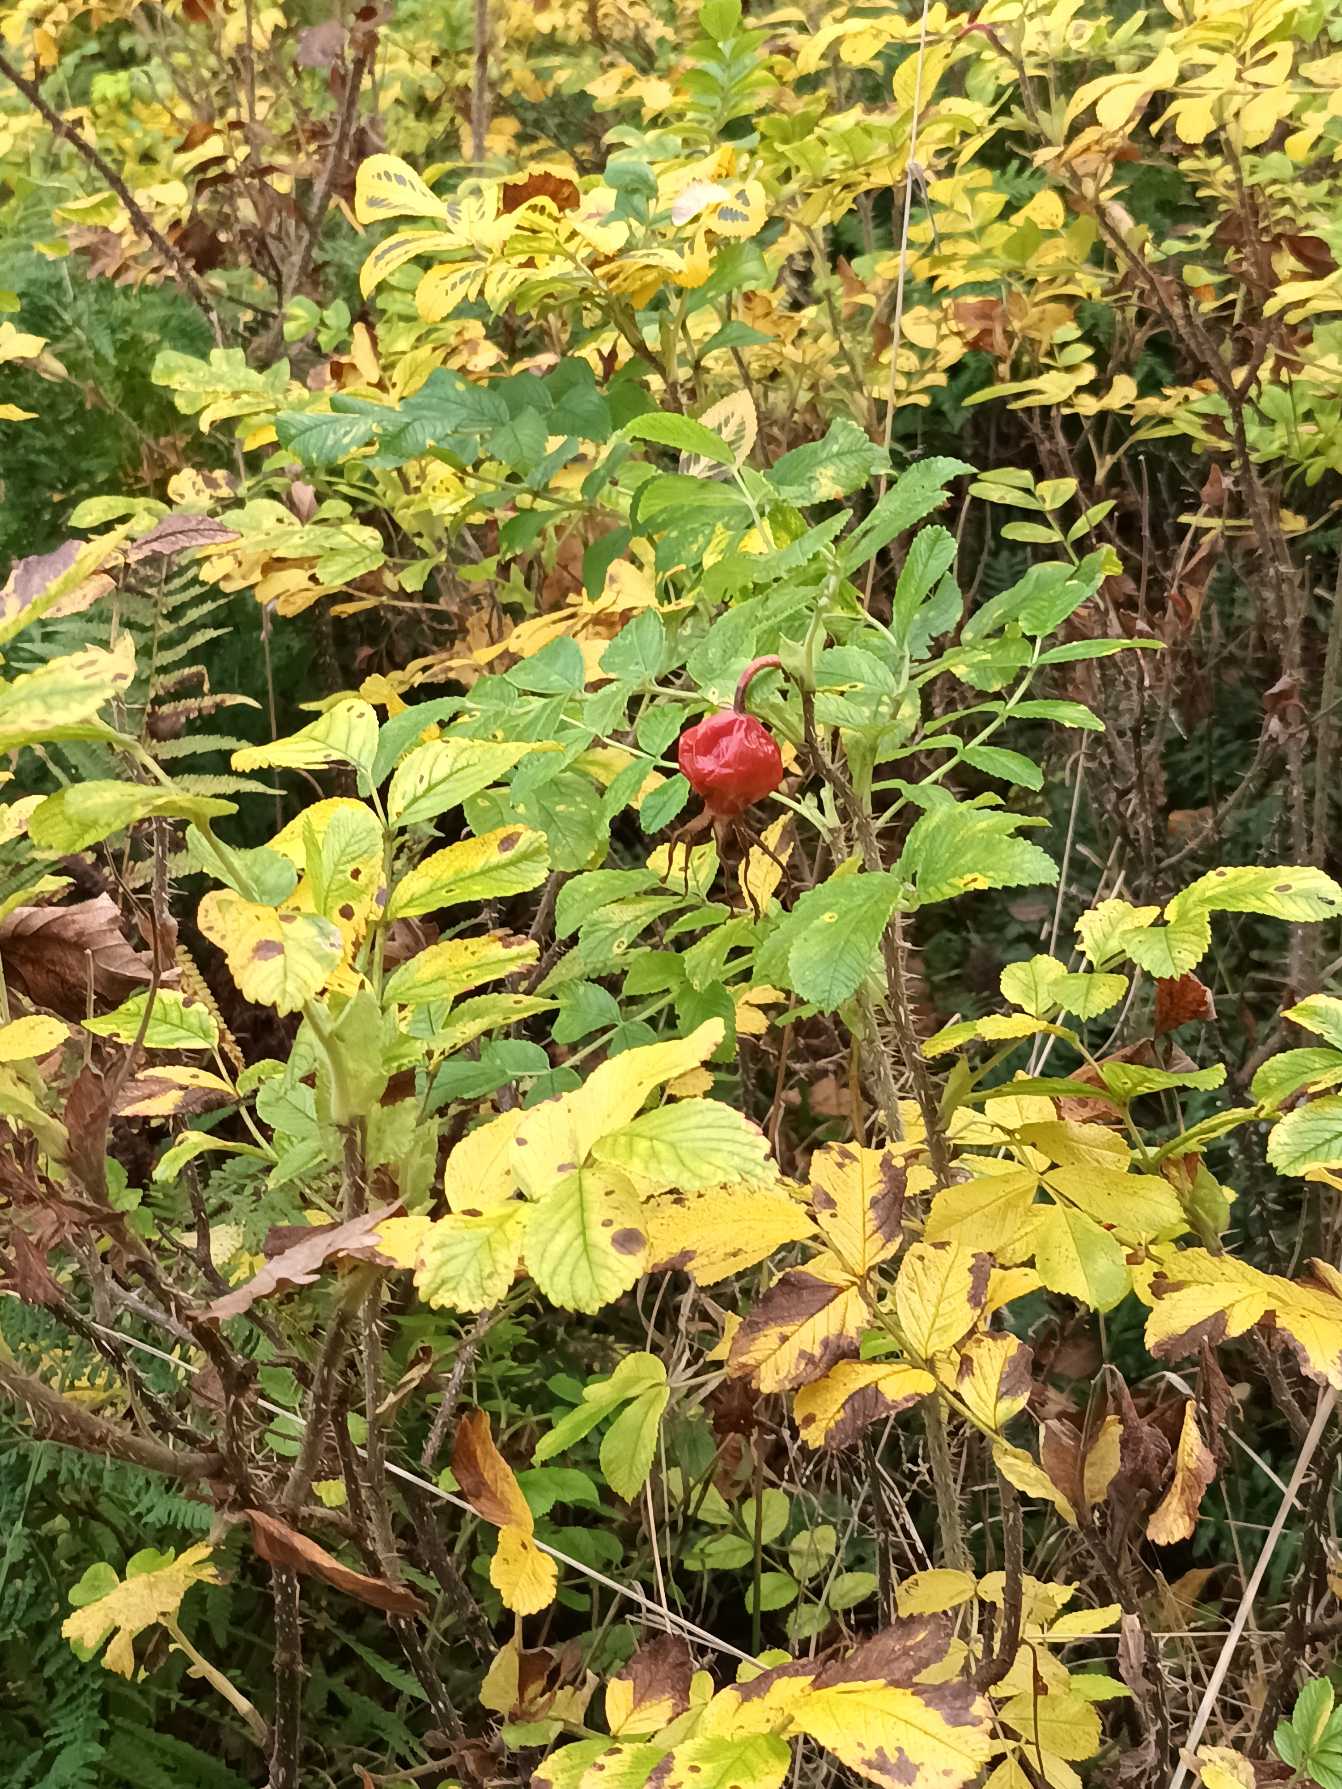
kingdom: Plantae
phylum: Tracheophyta
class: Magnoliopsida
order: Rosales
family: Rosaceae
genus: Rosa
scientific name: Rosa rugosa
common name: Rynket rose
